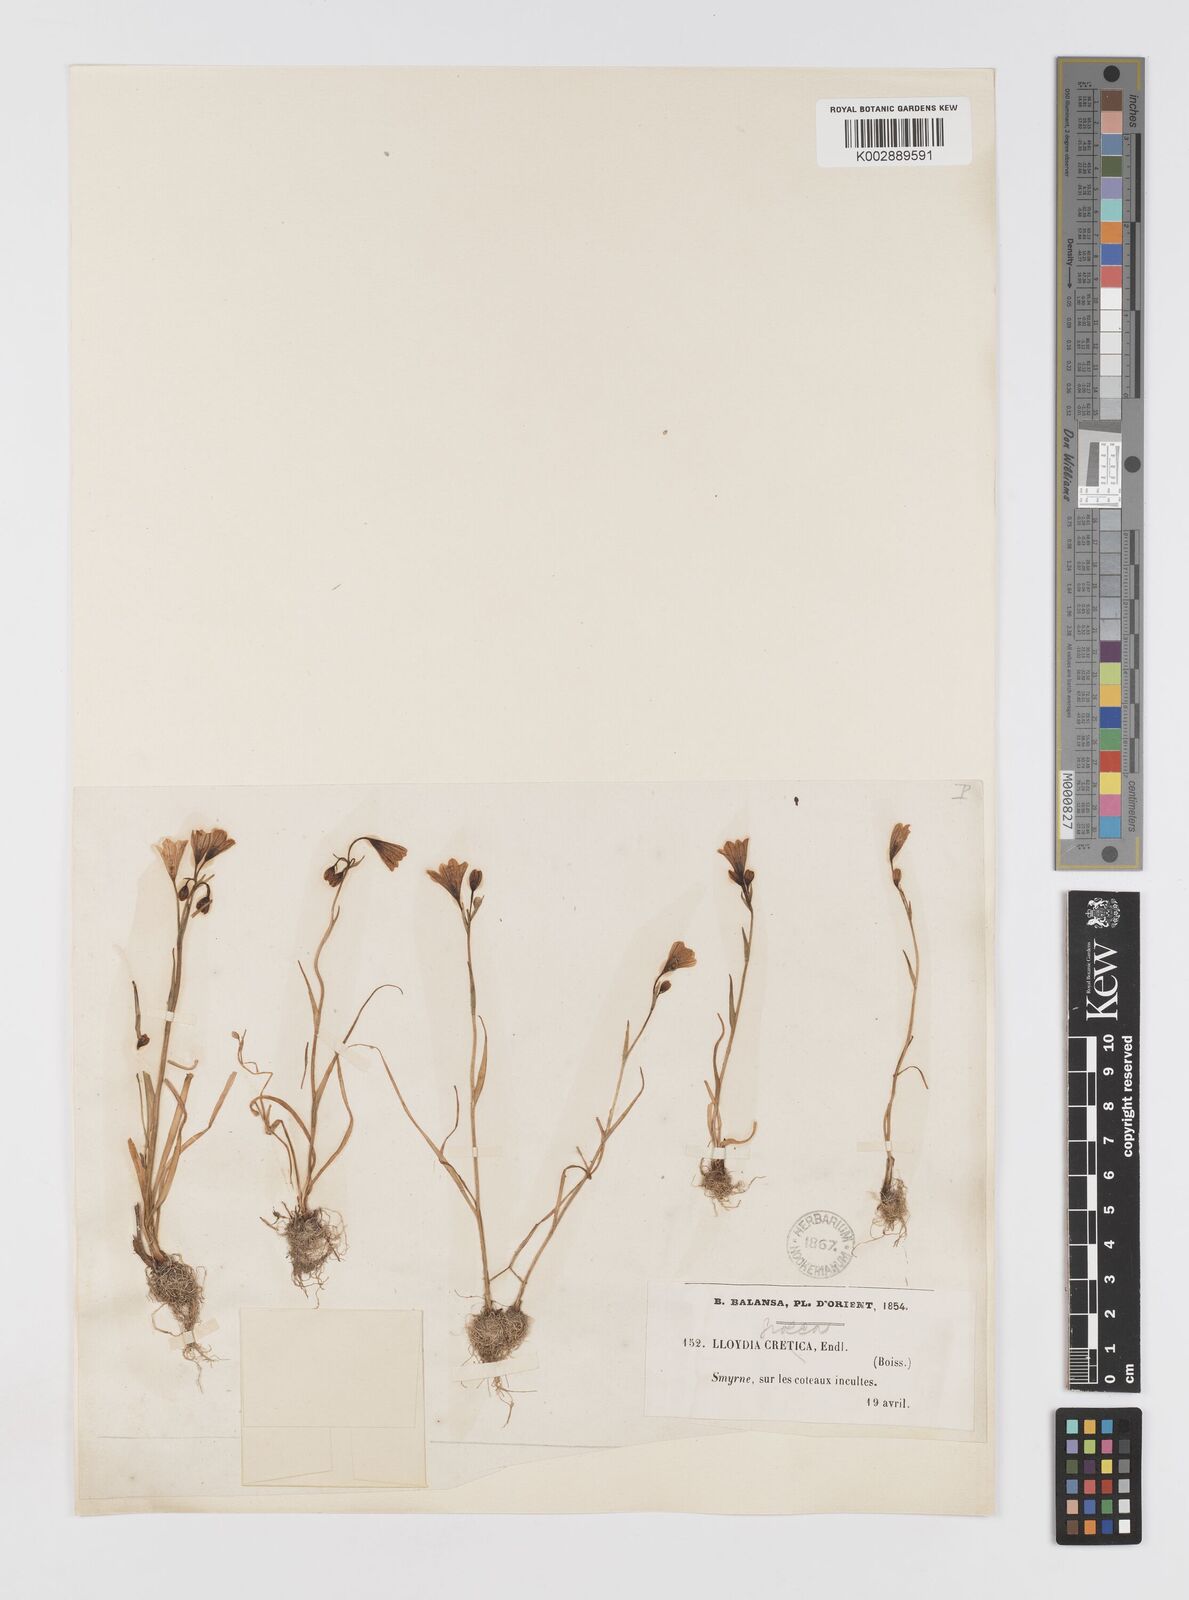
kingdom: Plantae
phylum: Tracheophyta
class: Liliopsida
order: Liliales
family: Liliaceae
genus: Gagea
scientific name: Gagea graeca
